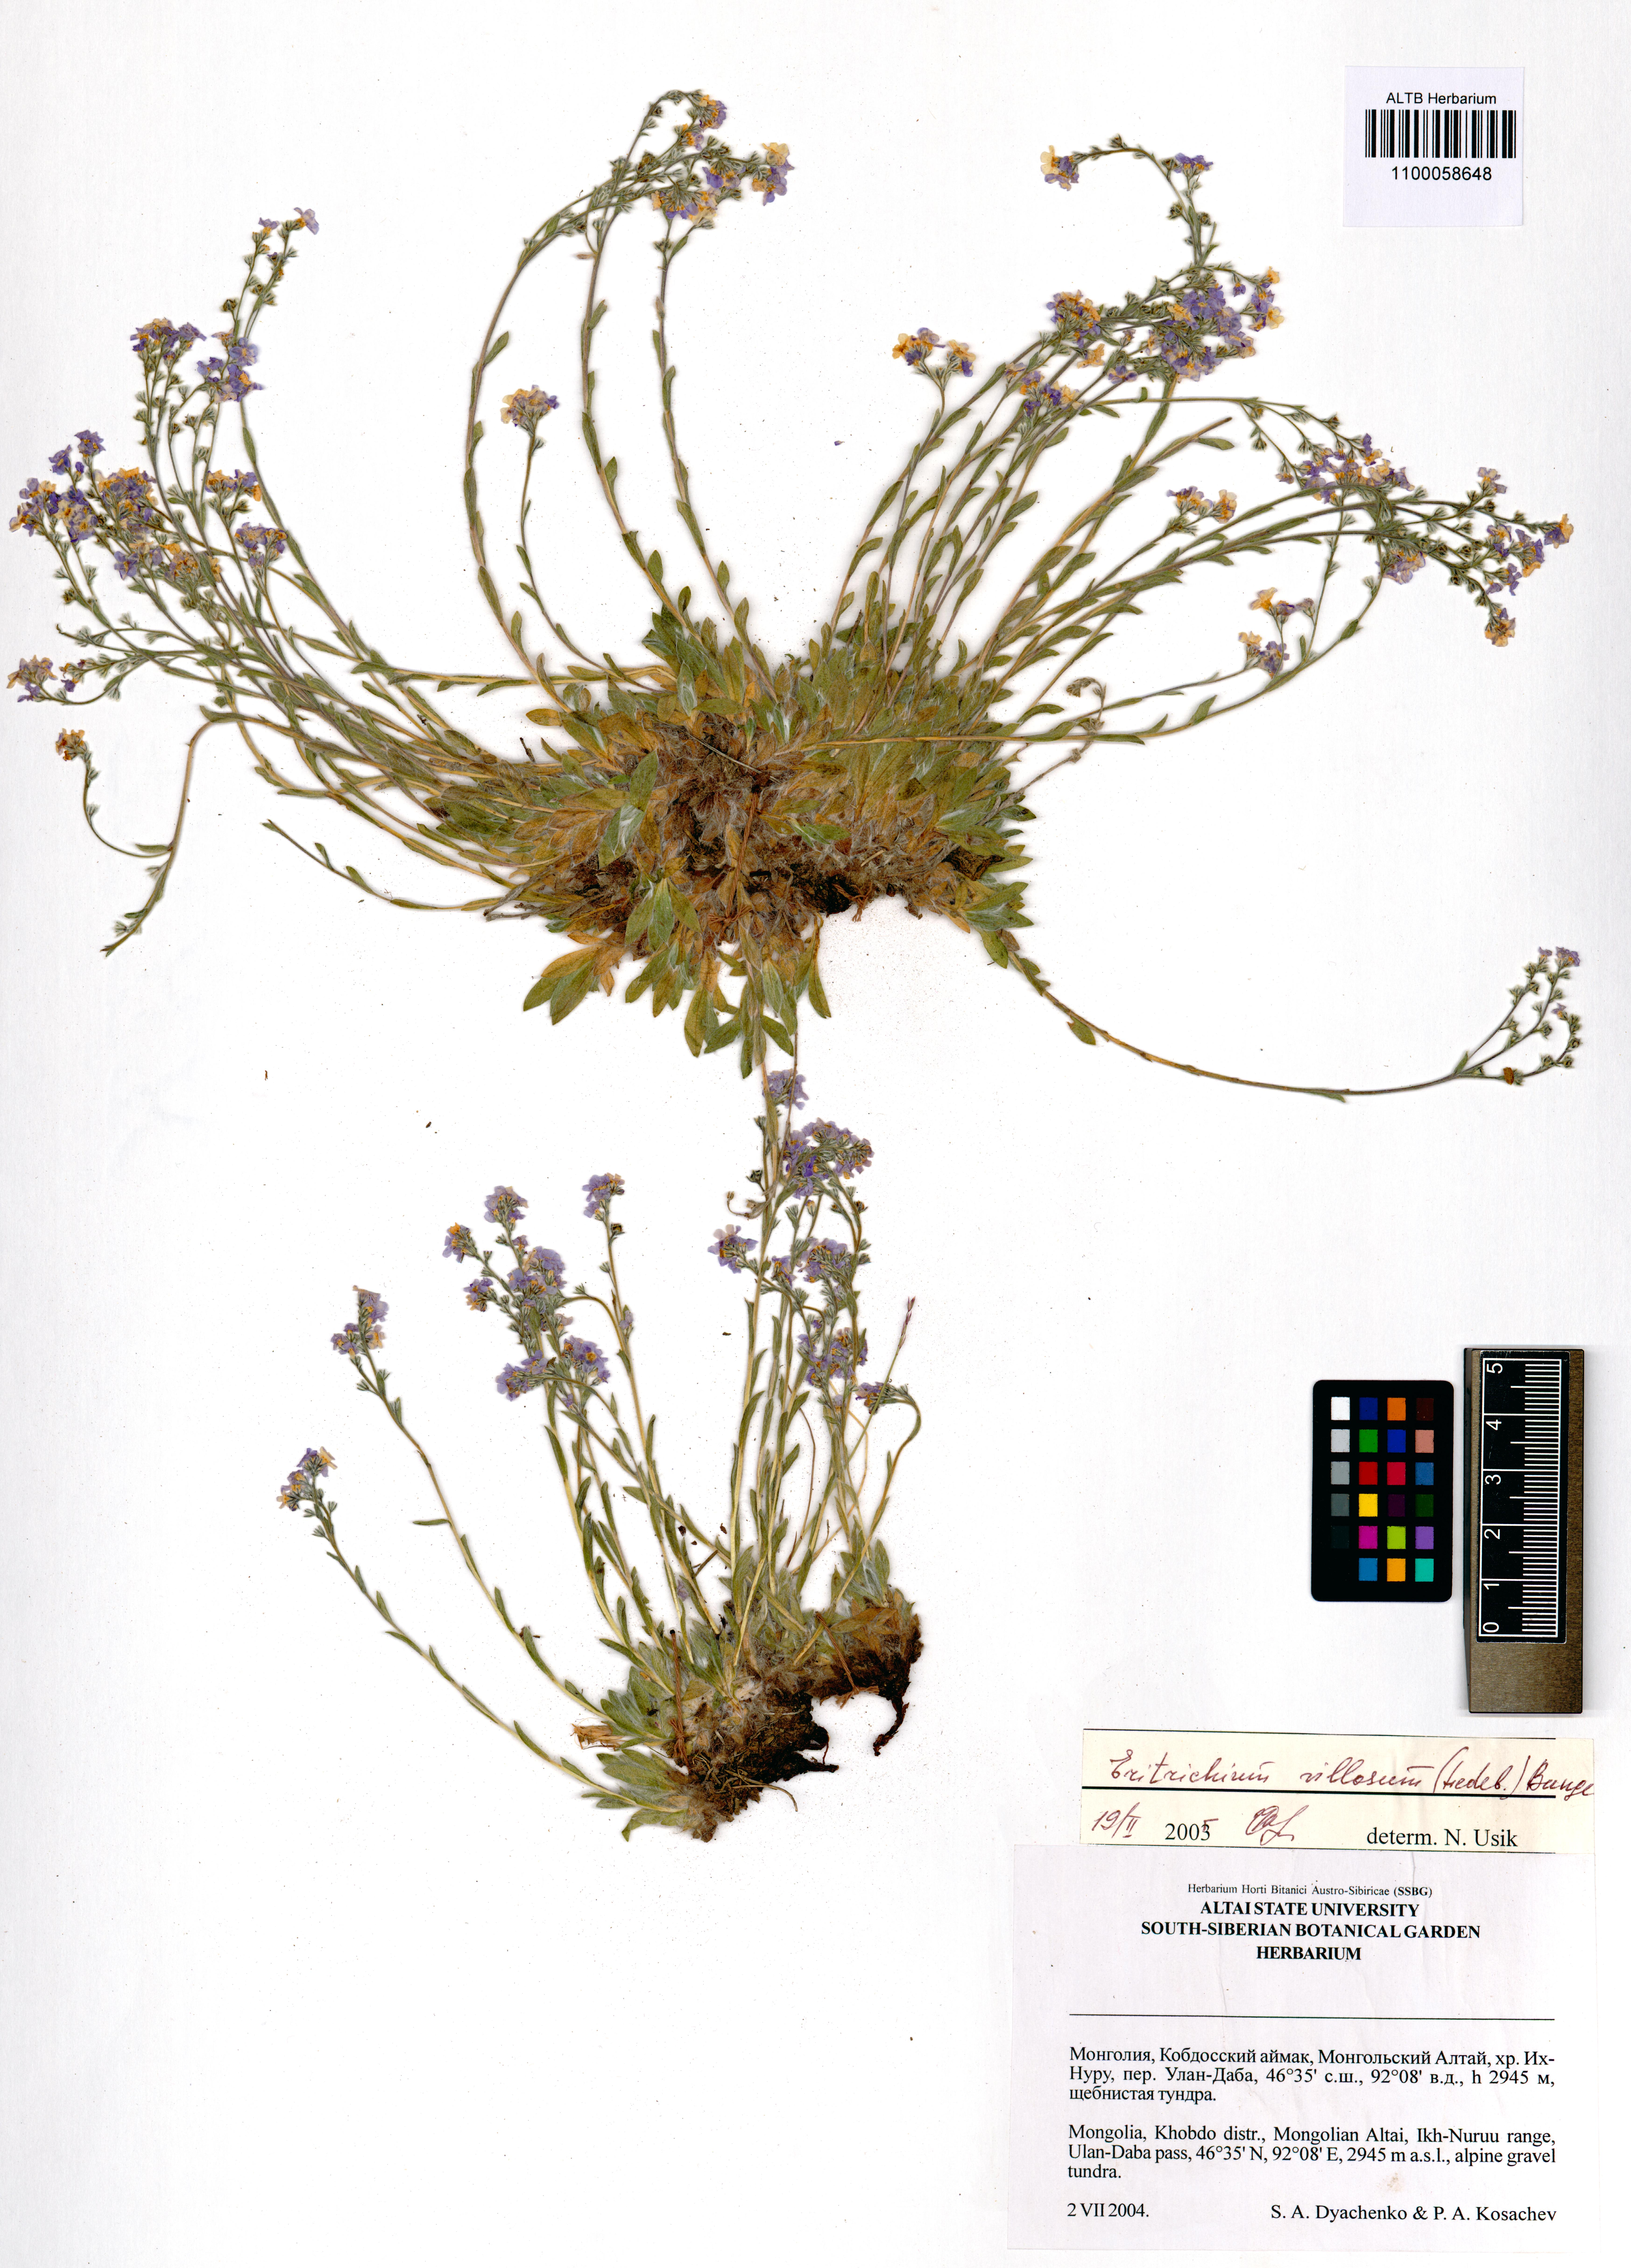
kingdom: Plantae
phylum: Tracheophyta
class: Magnoliopsida
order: Boraginales
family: Boraginaceae
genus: Eritrichium
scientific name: Eritrichium villosum
